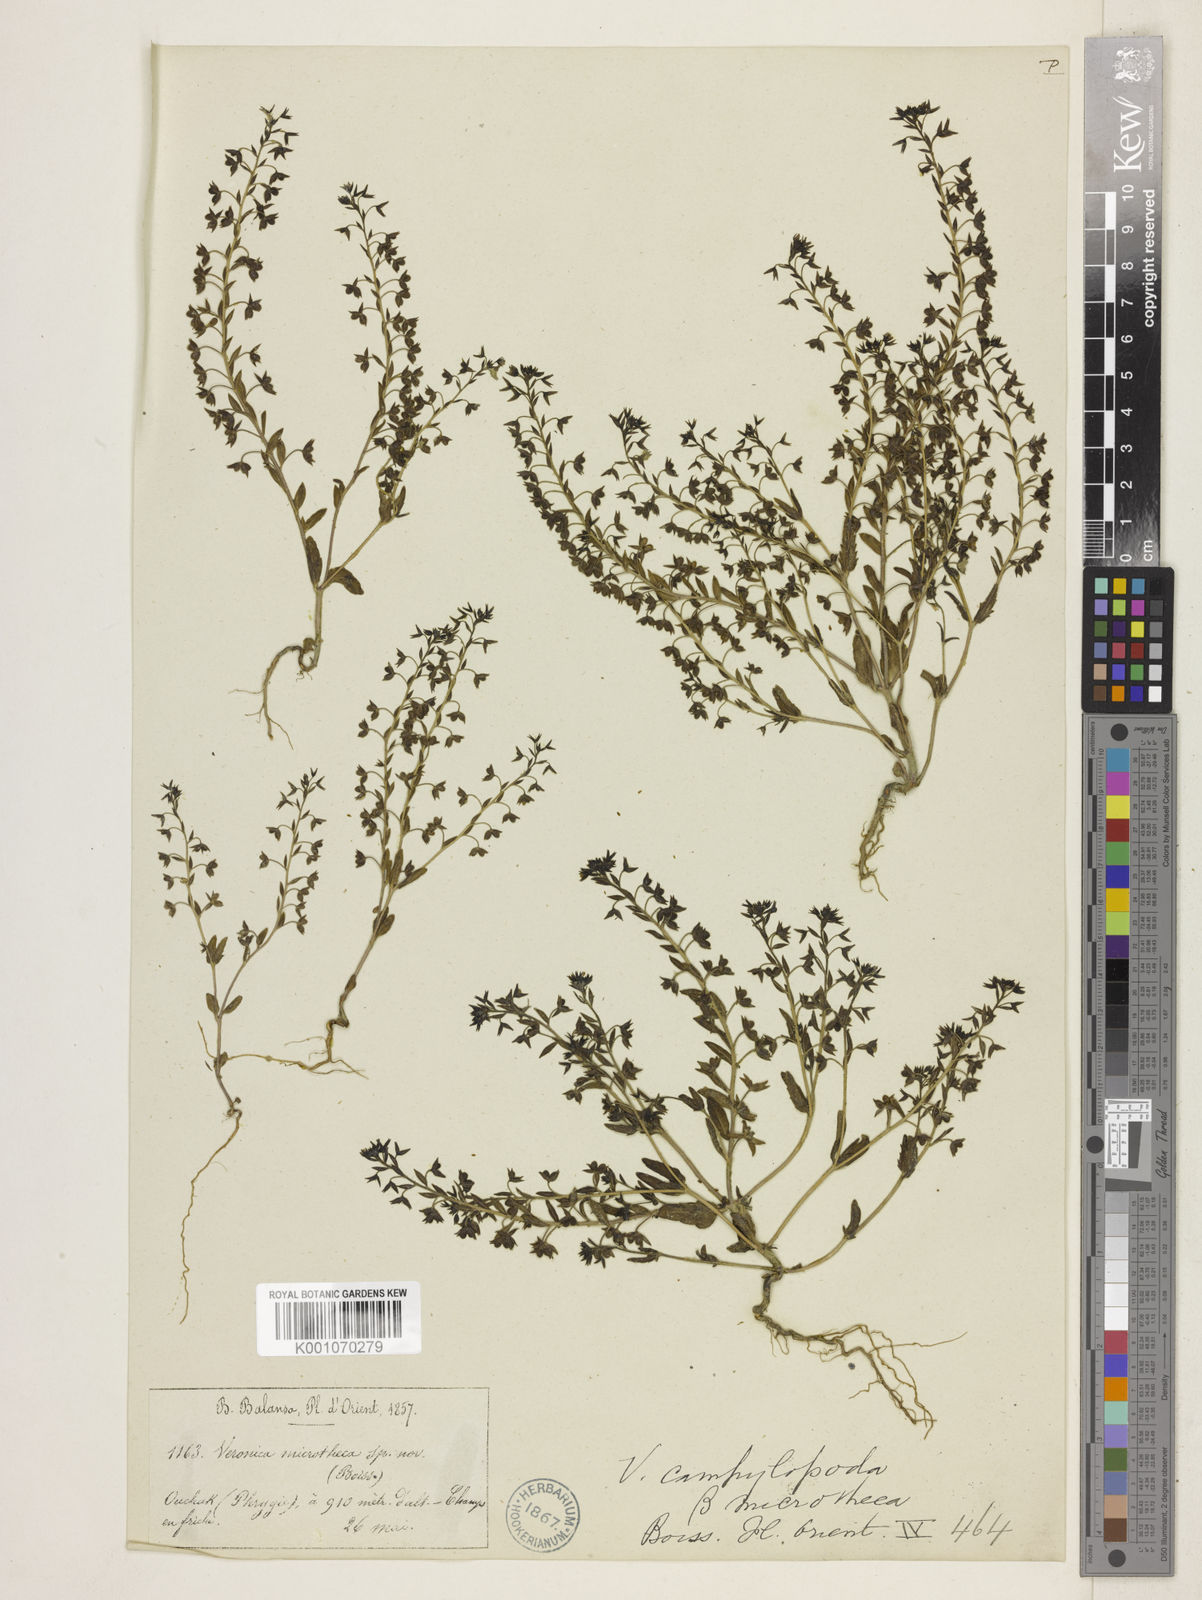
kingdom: Plantae
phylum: Tracheophyta
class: Magnoliopsida
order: Lamiales
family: Plantaginaceae
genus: Veronica
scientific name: Veronica campylopoda
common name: Bent-foot speedwell
